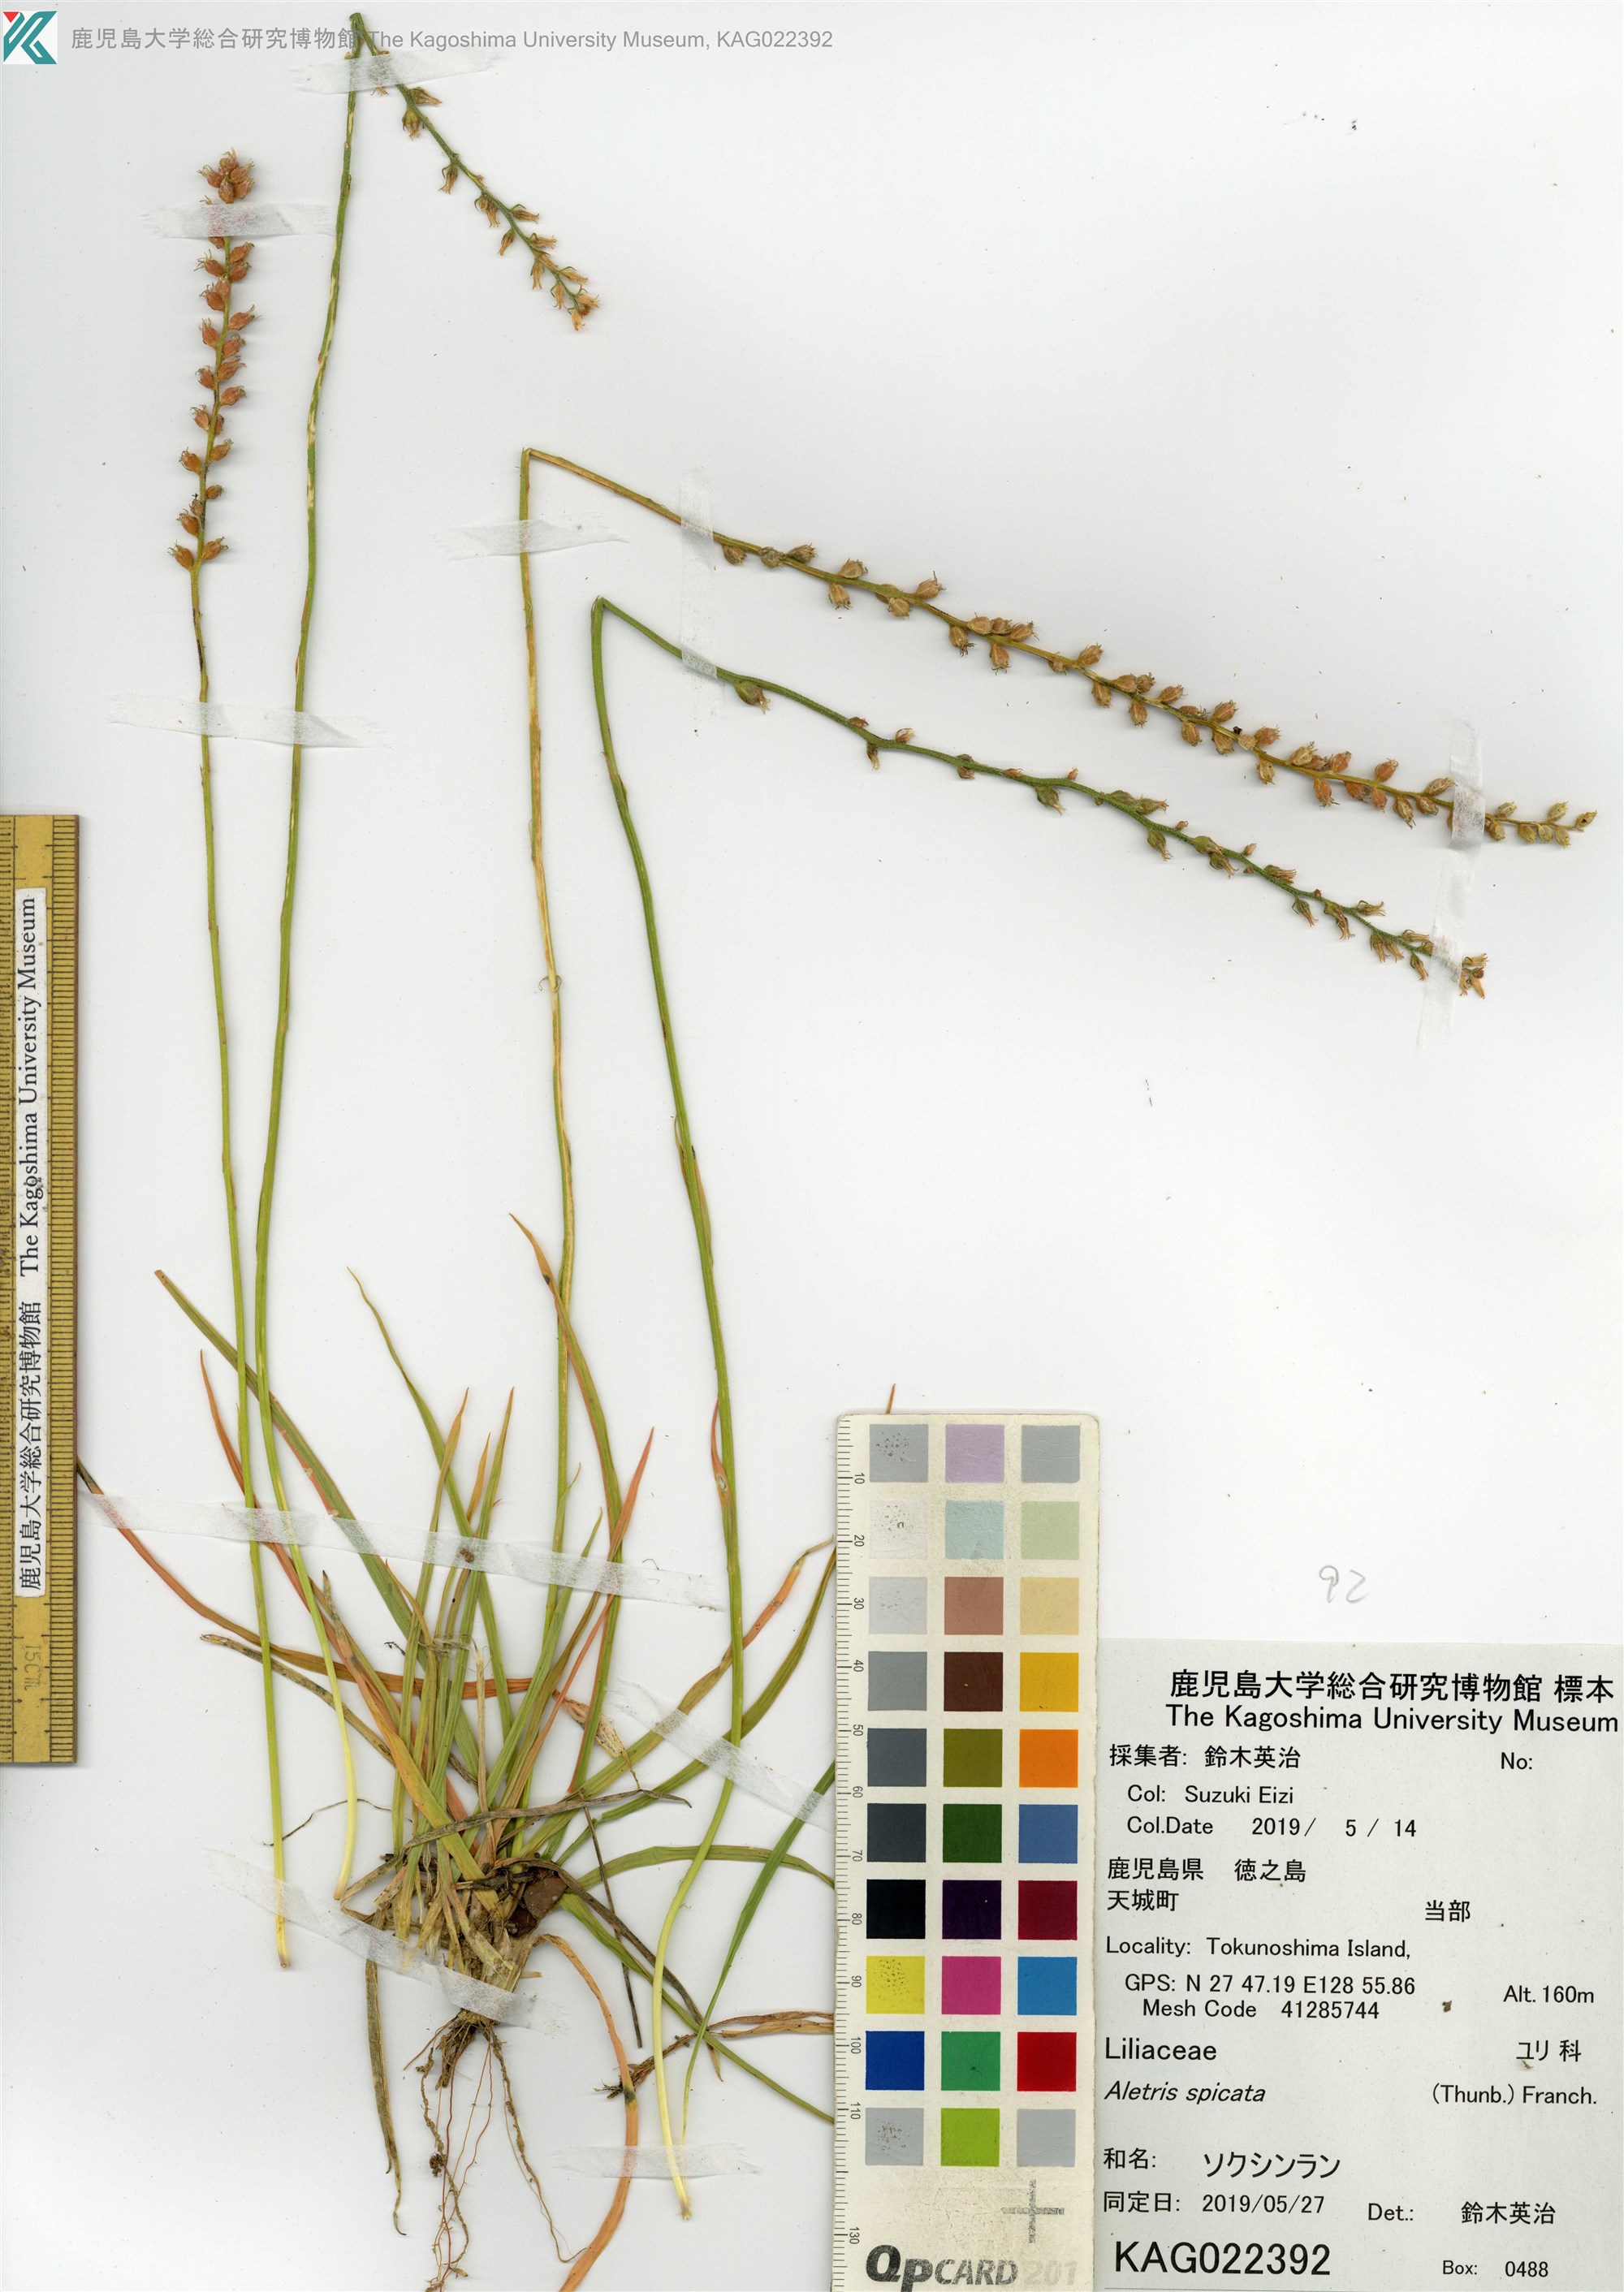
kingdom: Plantae
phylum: Tracheophyta
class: Liliopsida
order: Dioscoreales
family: Nartheciaceae
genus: Aletris
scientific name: Aletris spicata
